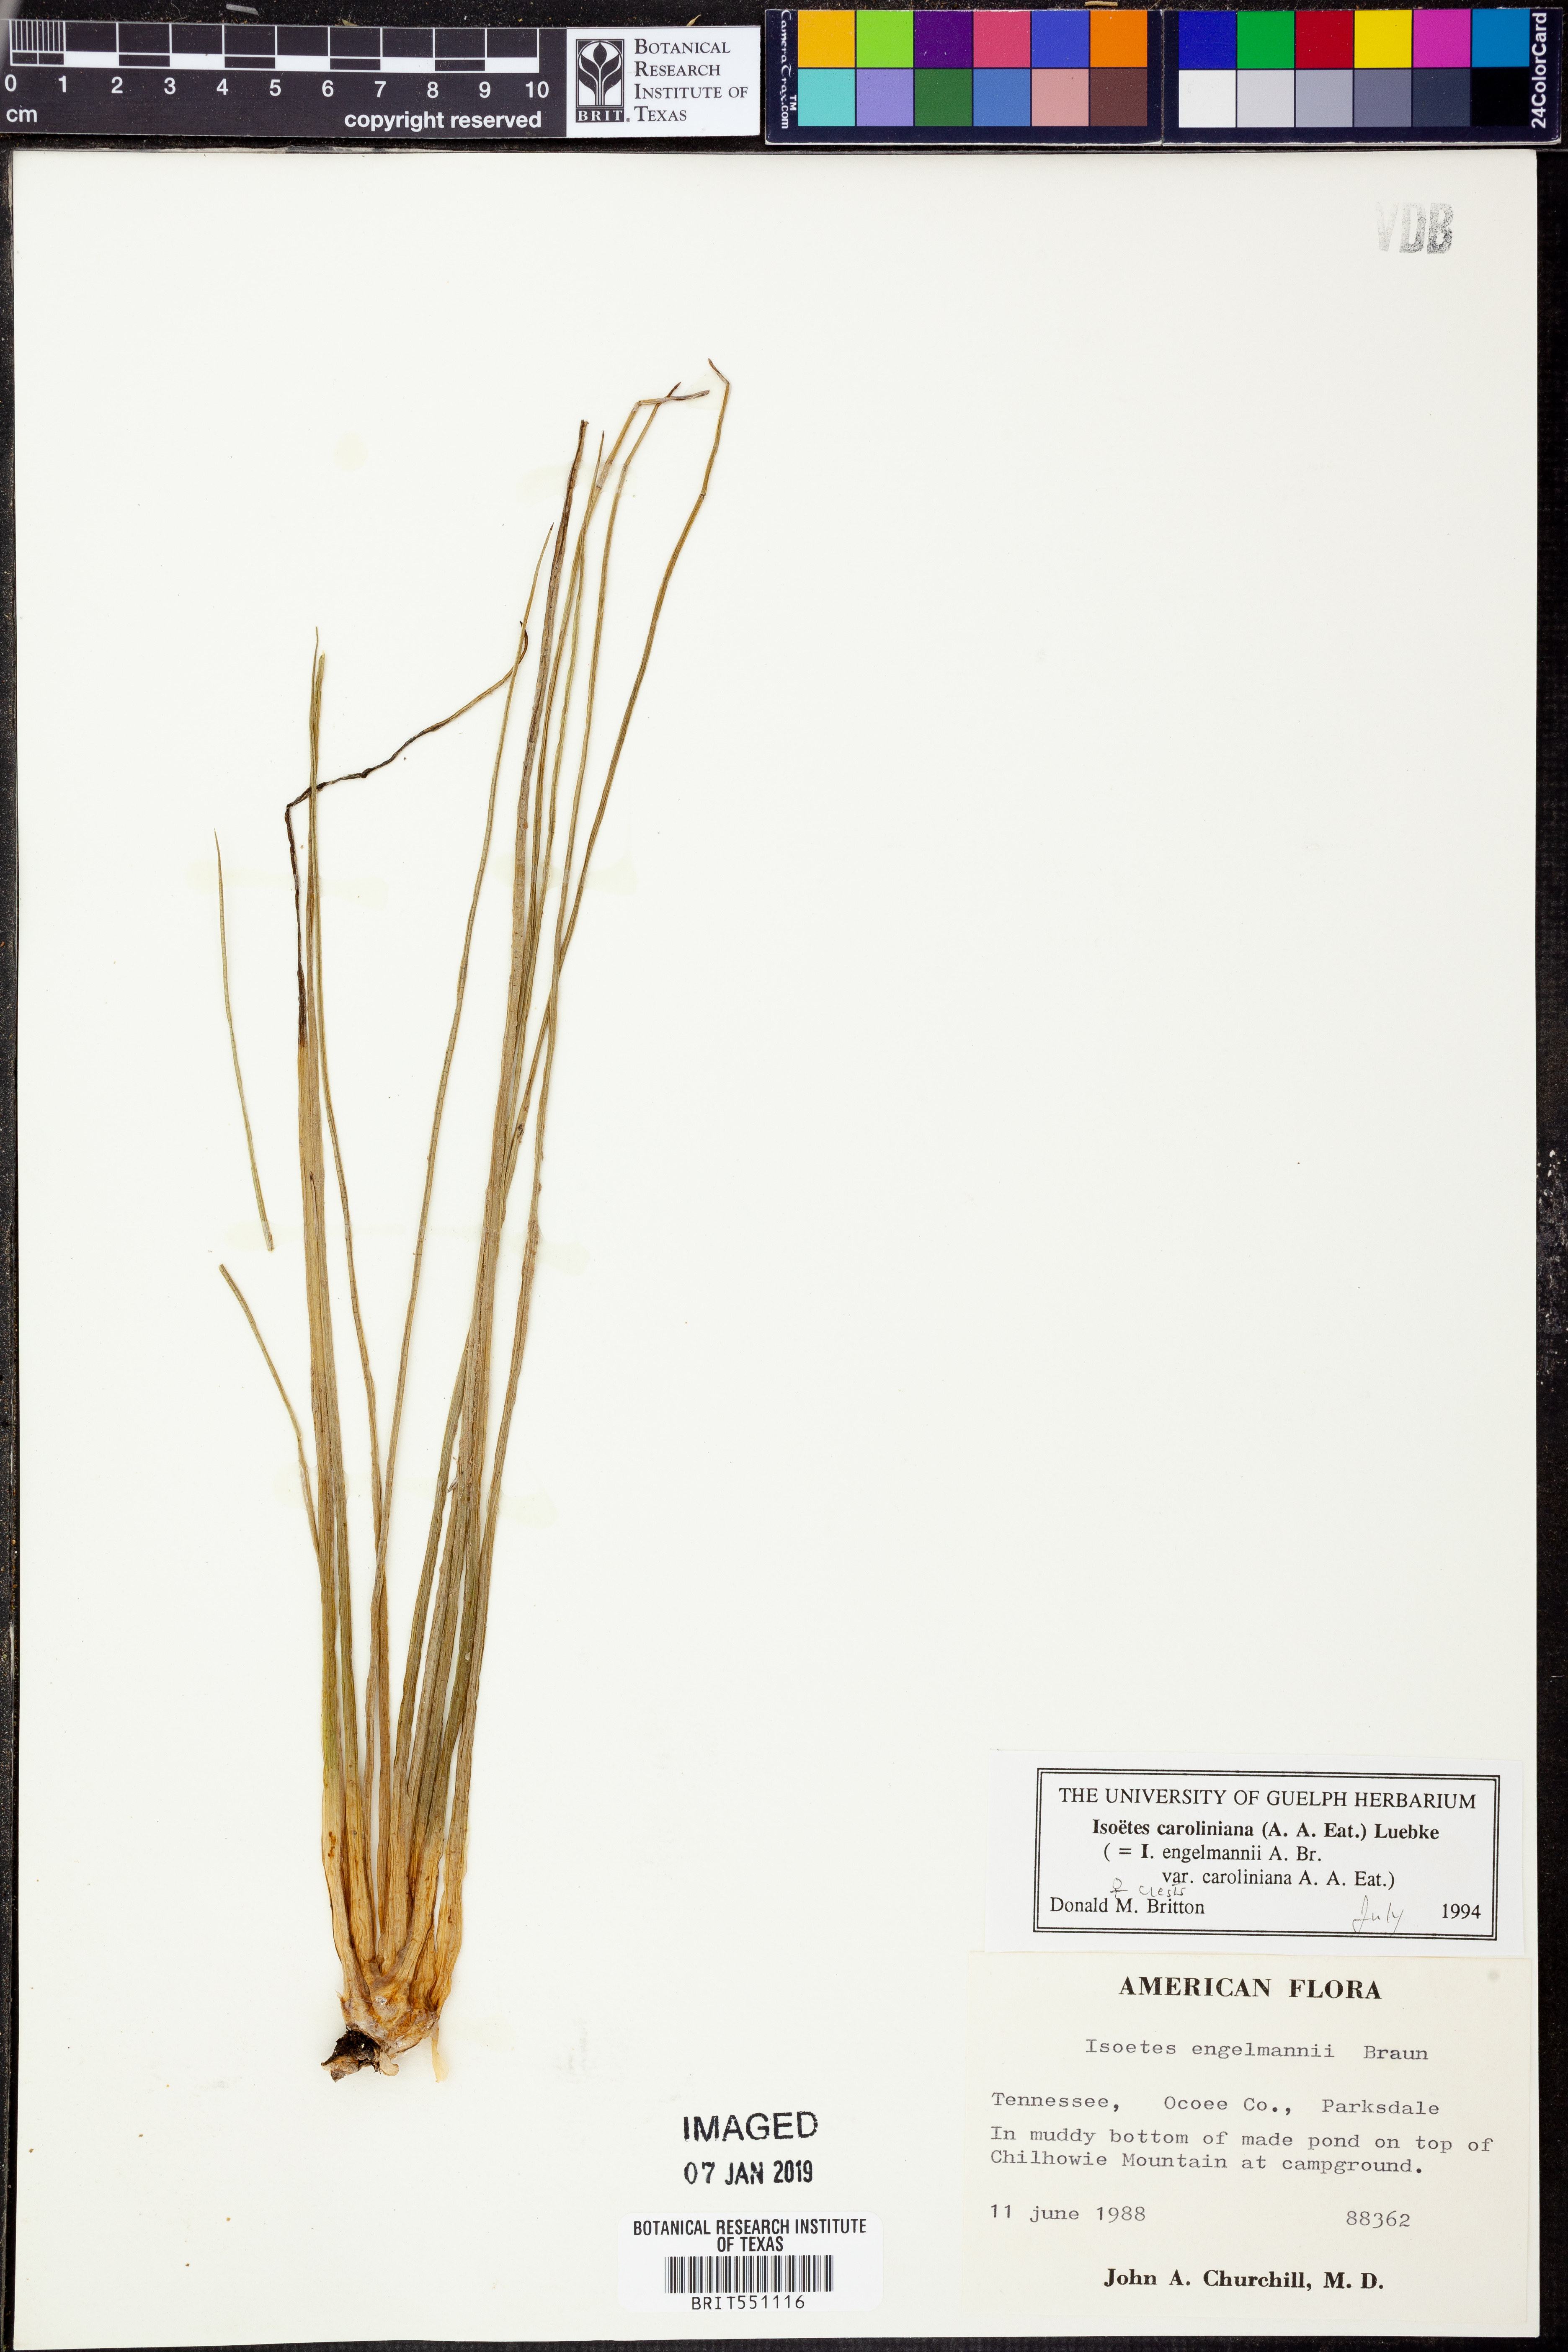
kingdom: Plantae
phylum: Tracheophyta
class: Lycopodiopsida
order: Isoetales
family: Isoetaceae
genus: Isoetes
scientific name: Isoetes caroliniana
